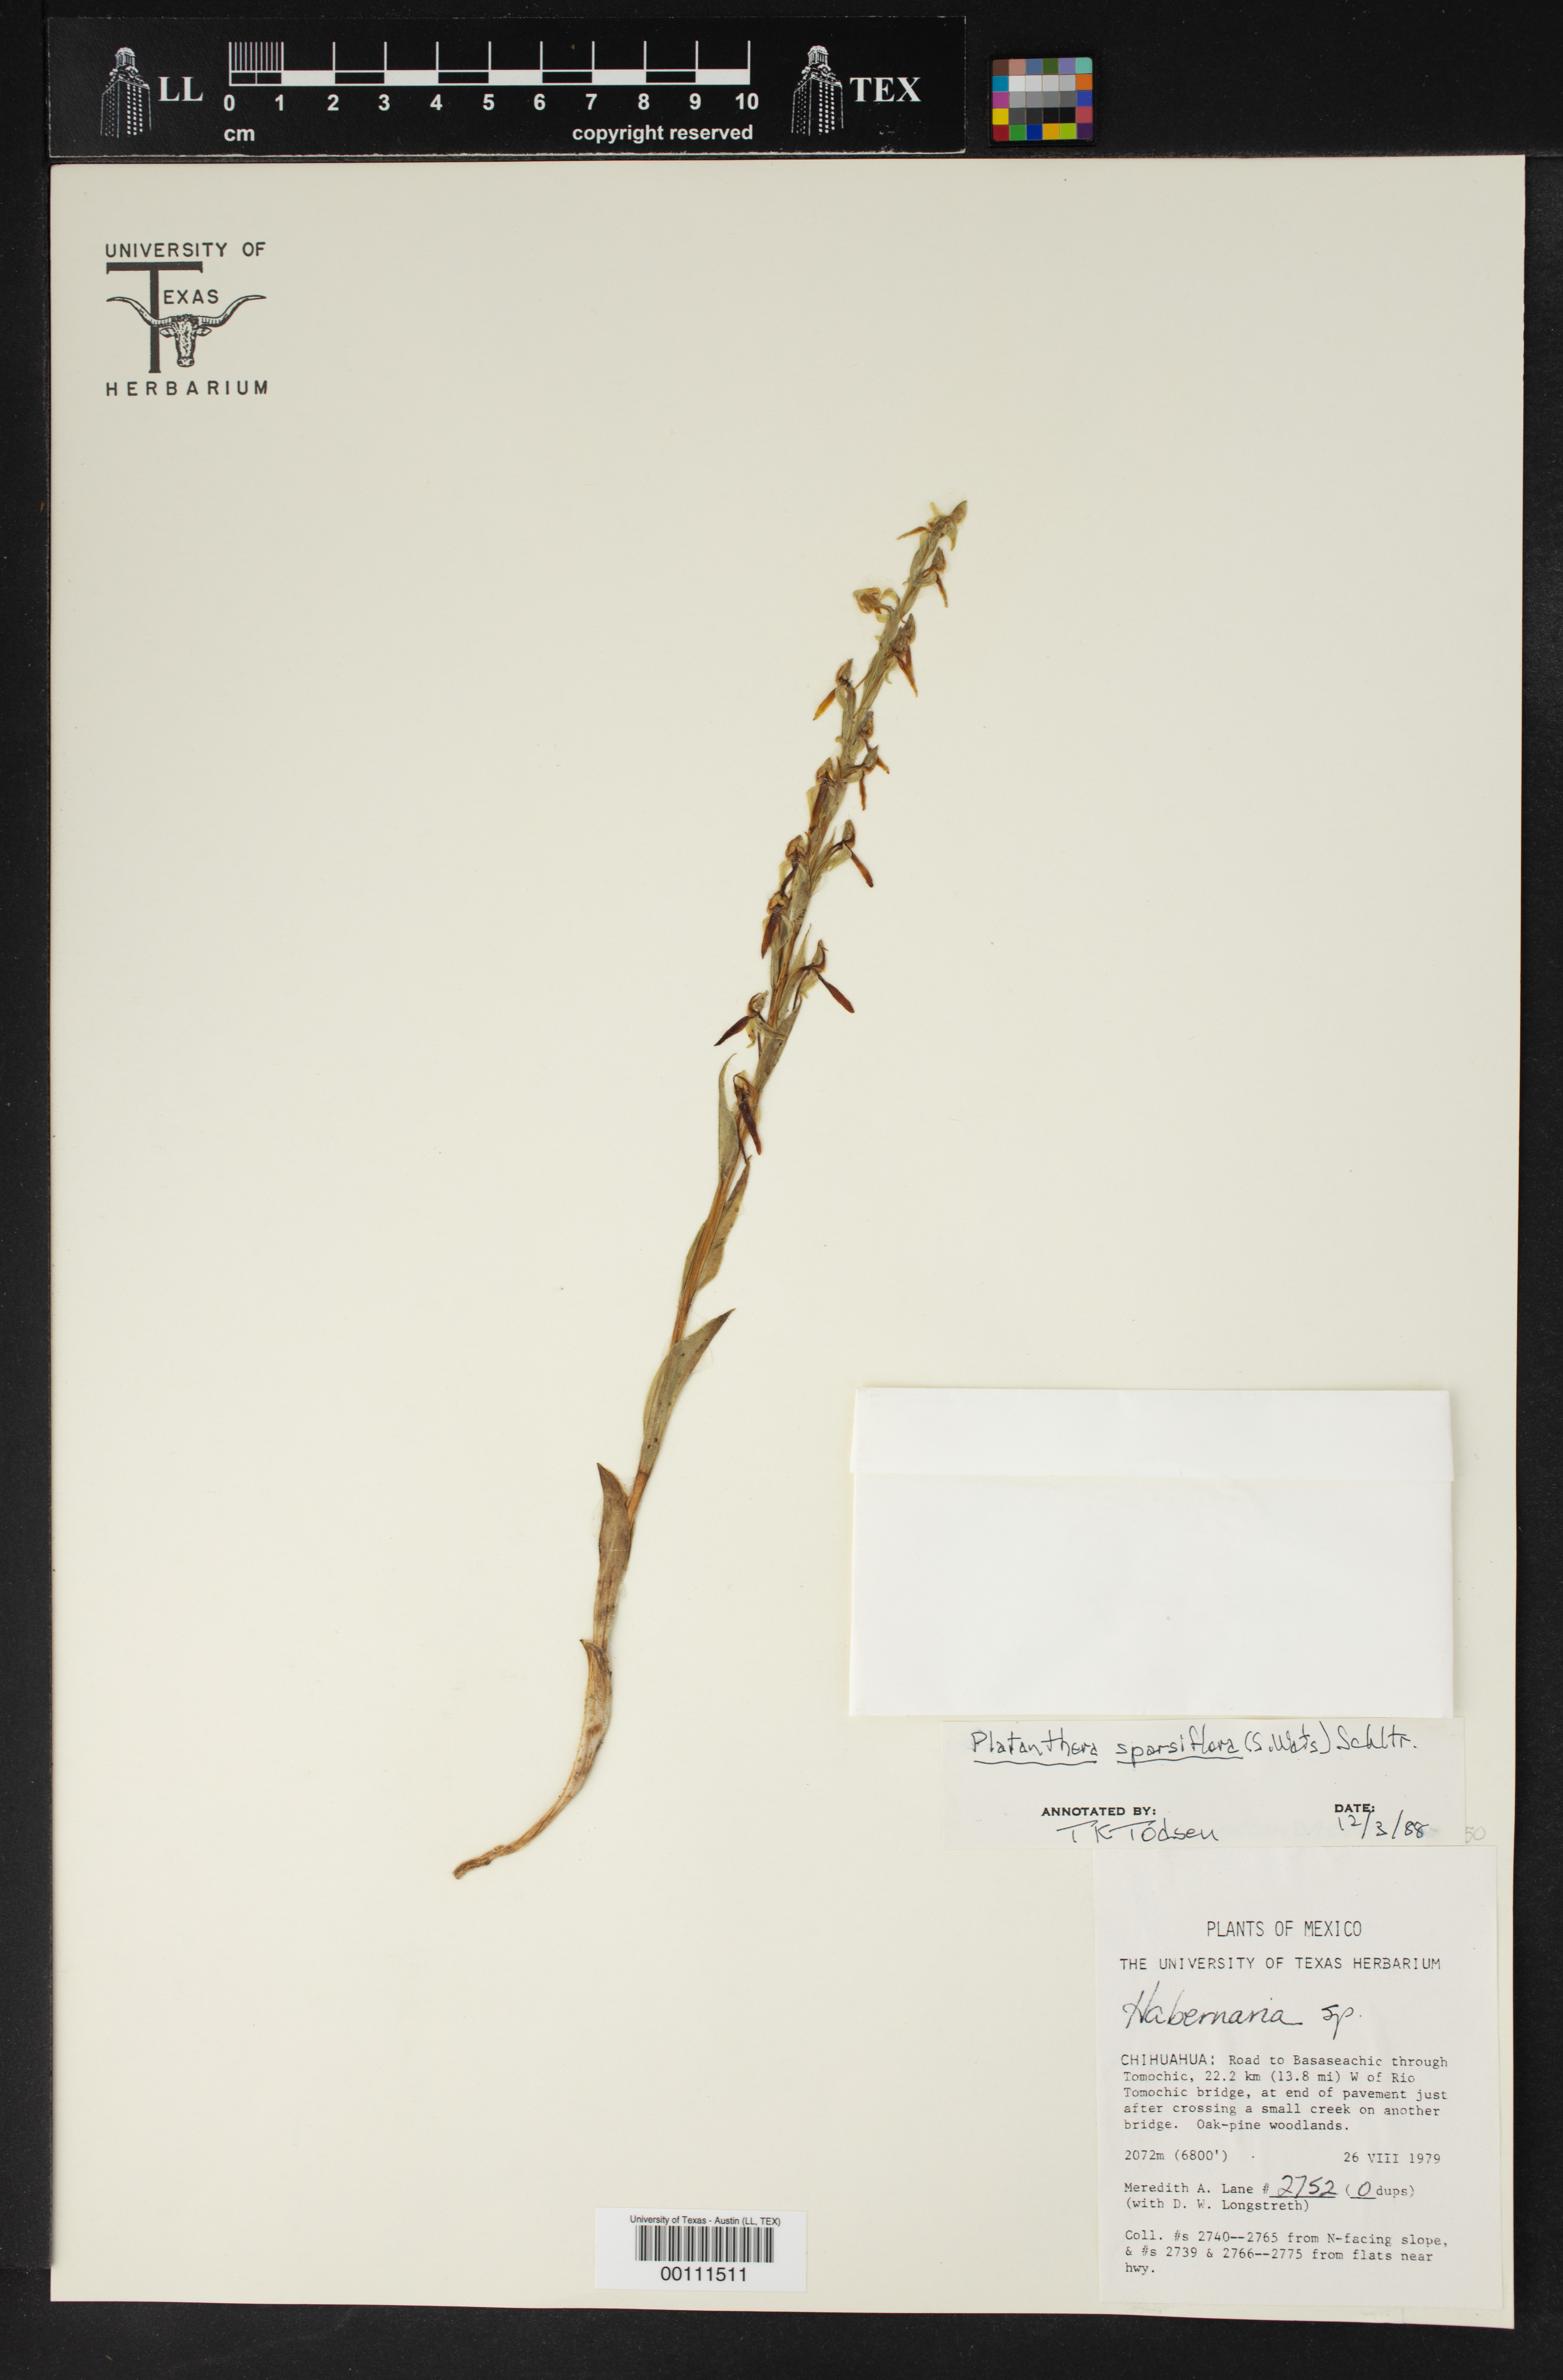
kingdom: Plantae
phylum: Tracheophyta
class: Liliopsida
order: Asparagales
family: Orchidaceae
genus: Platanthera
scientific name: Platanthera sparsiflora
